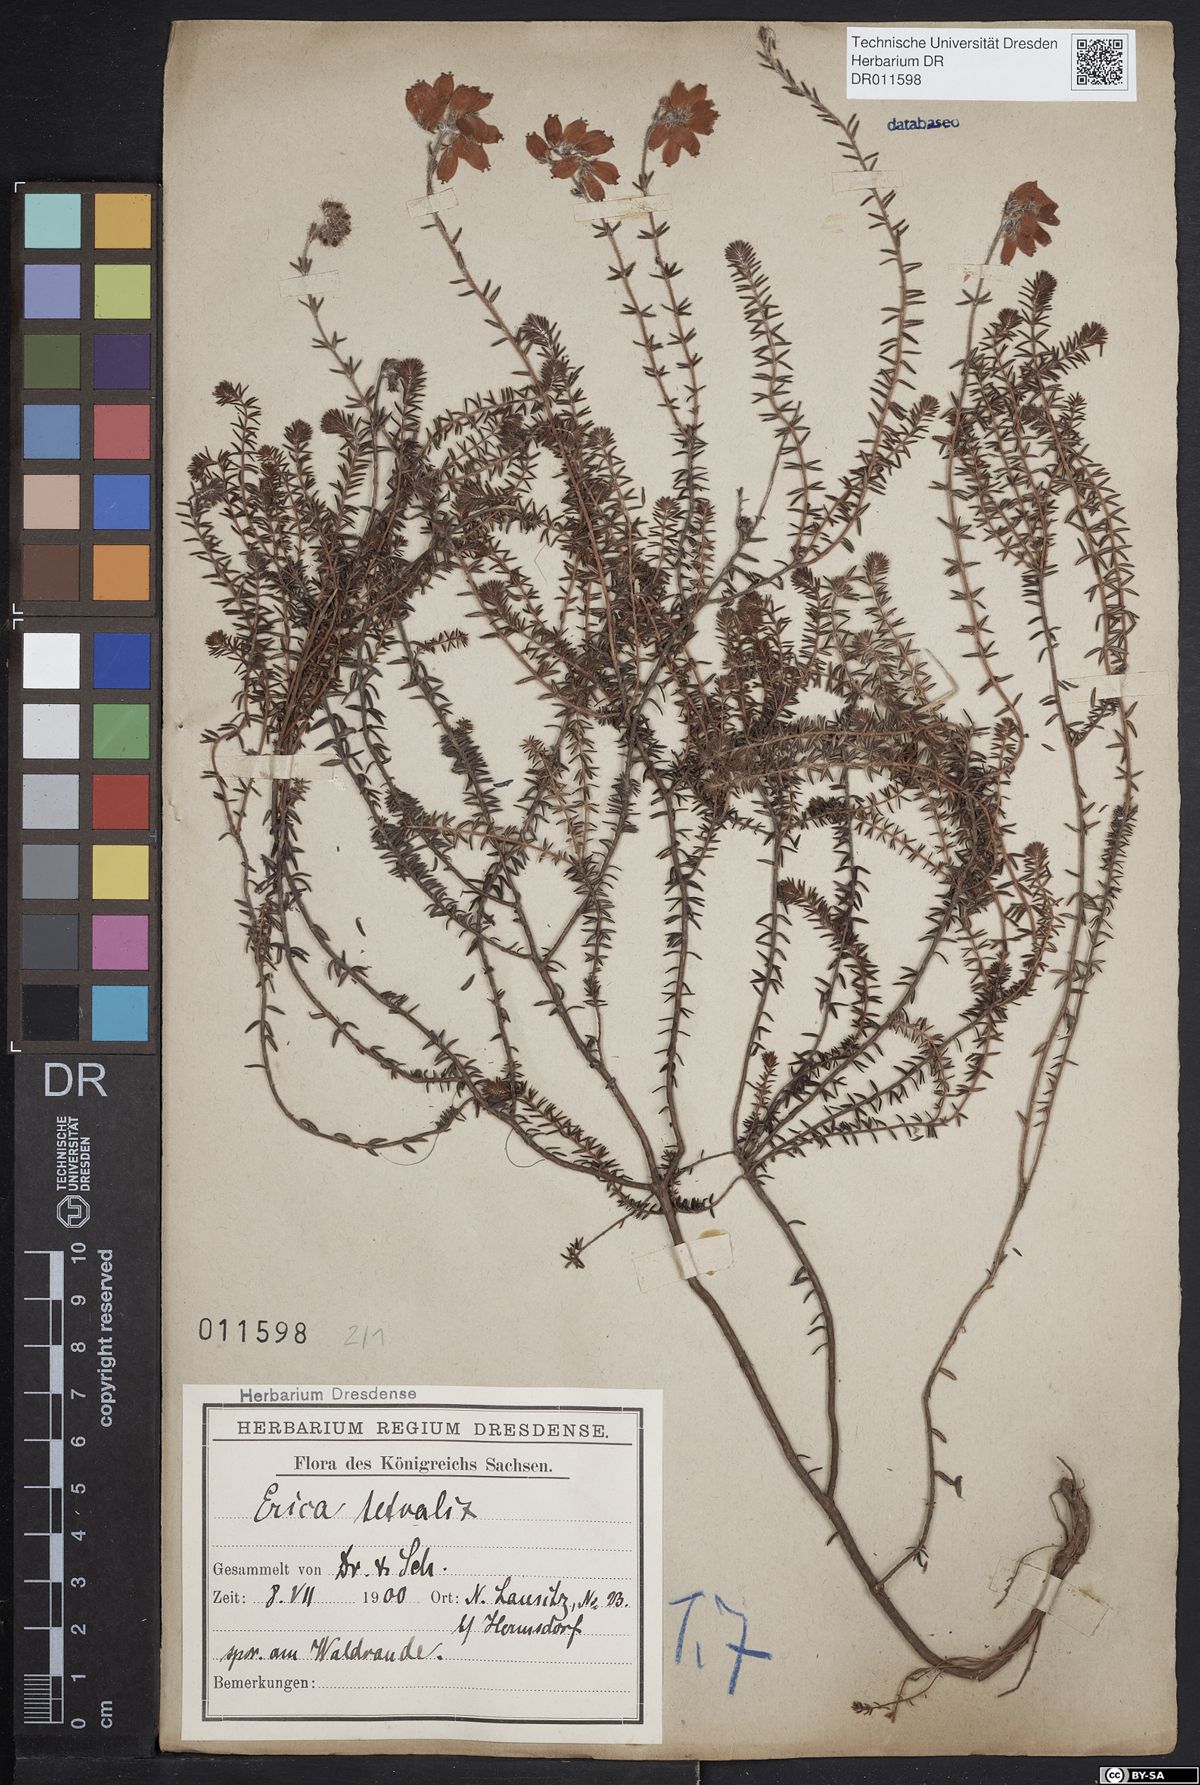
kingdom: Plantae
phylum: Tracheophyta
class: Magnoliopsida
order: Ericales
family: Ericaceae
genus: Erica
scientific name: Erica tetralix
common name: Cross-leaved heath
